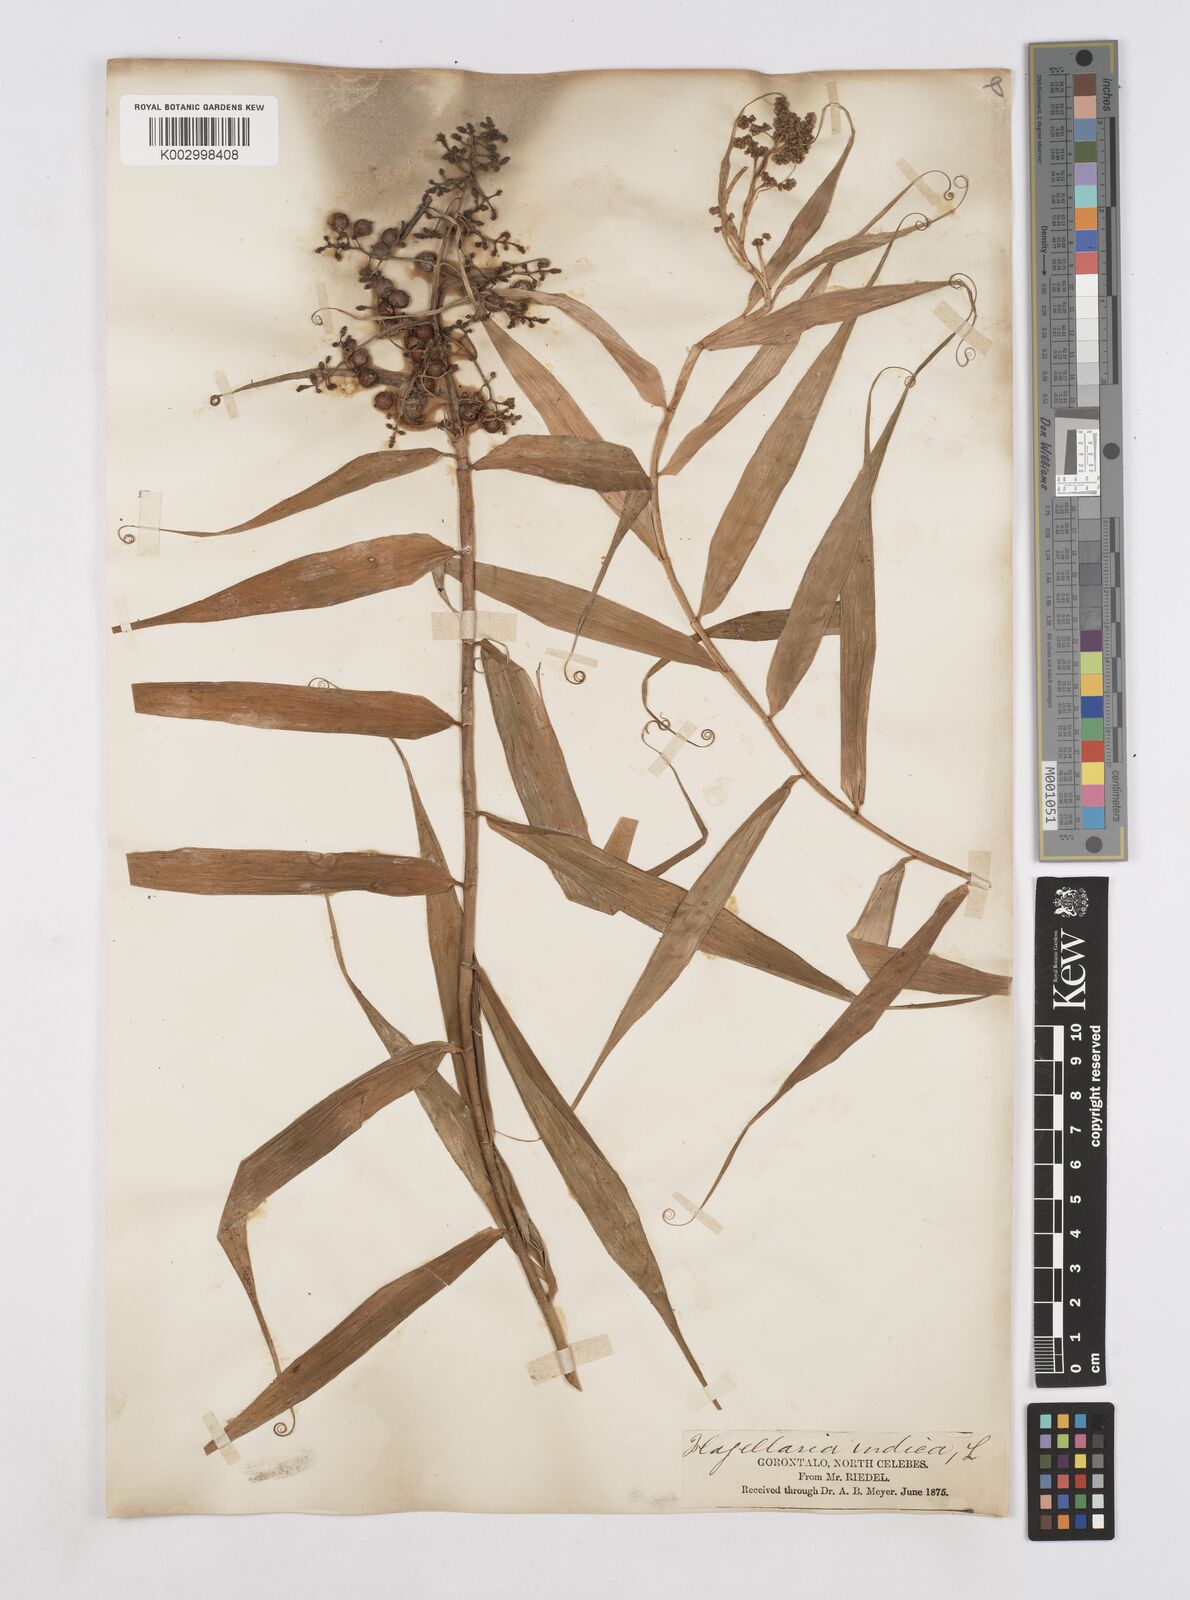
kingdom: Plantae
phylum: Tracheophyta
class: Liliopsida
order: Poales
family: Flagellariaceae
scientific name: Flagellariaceae
